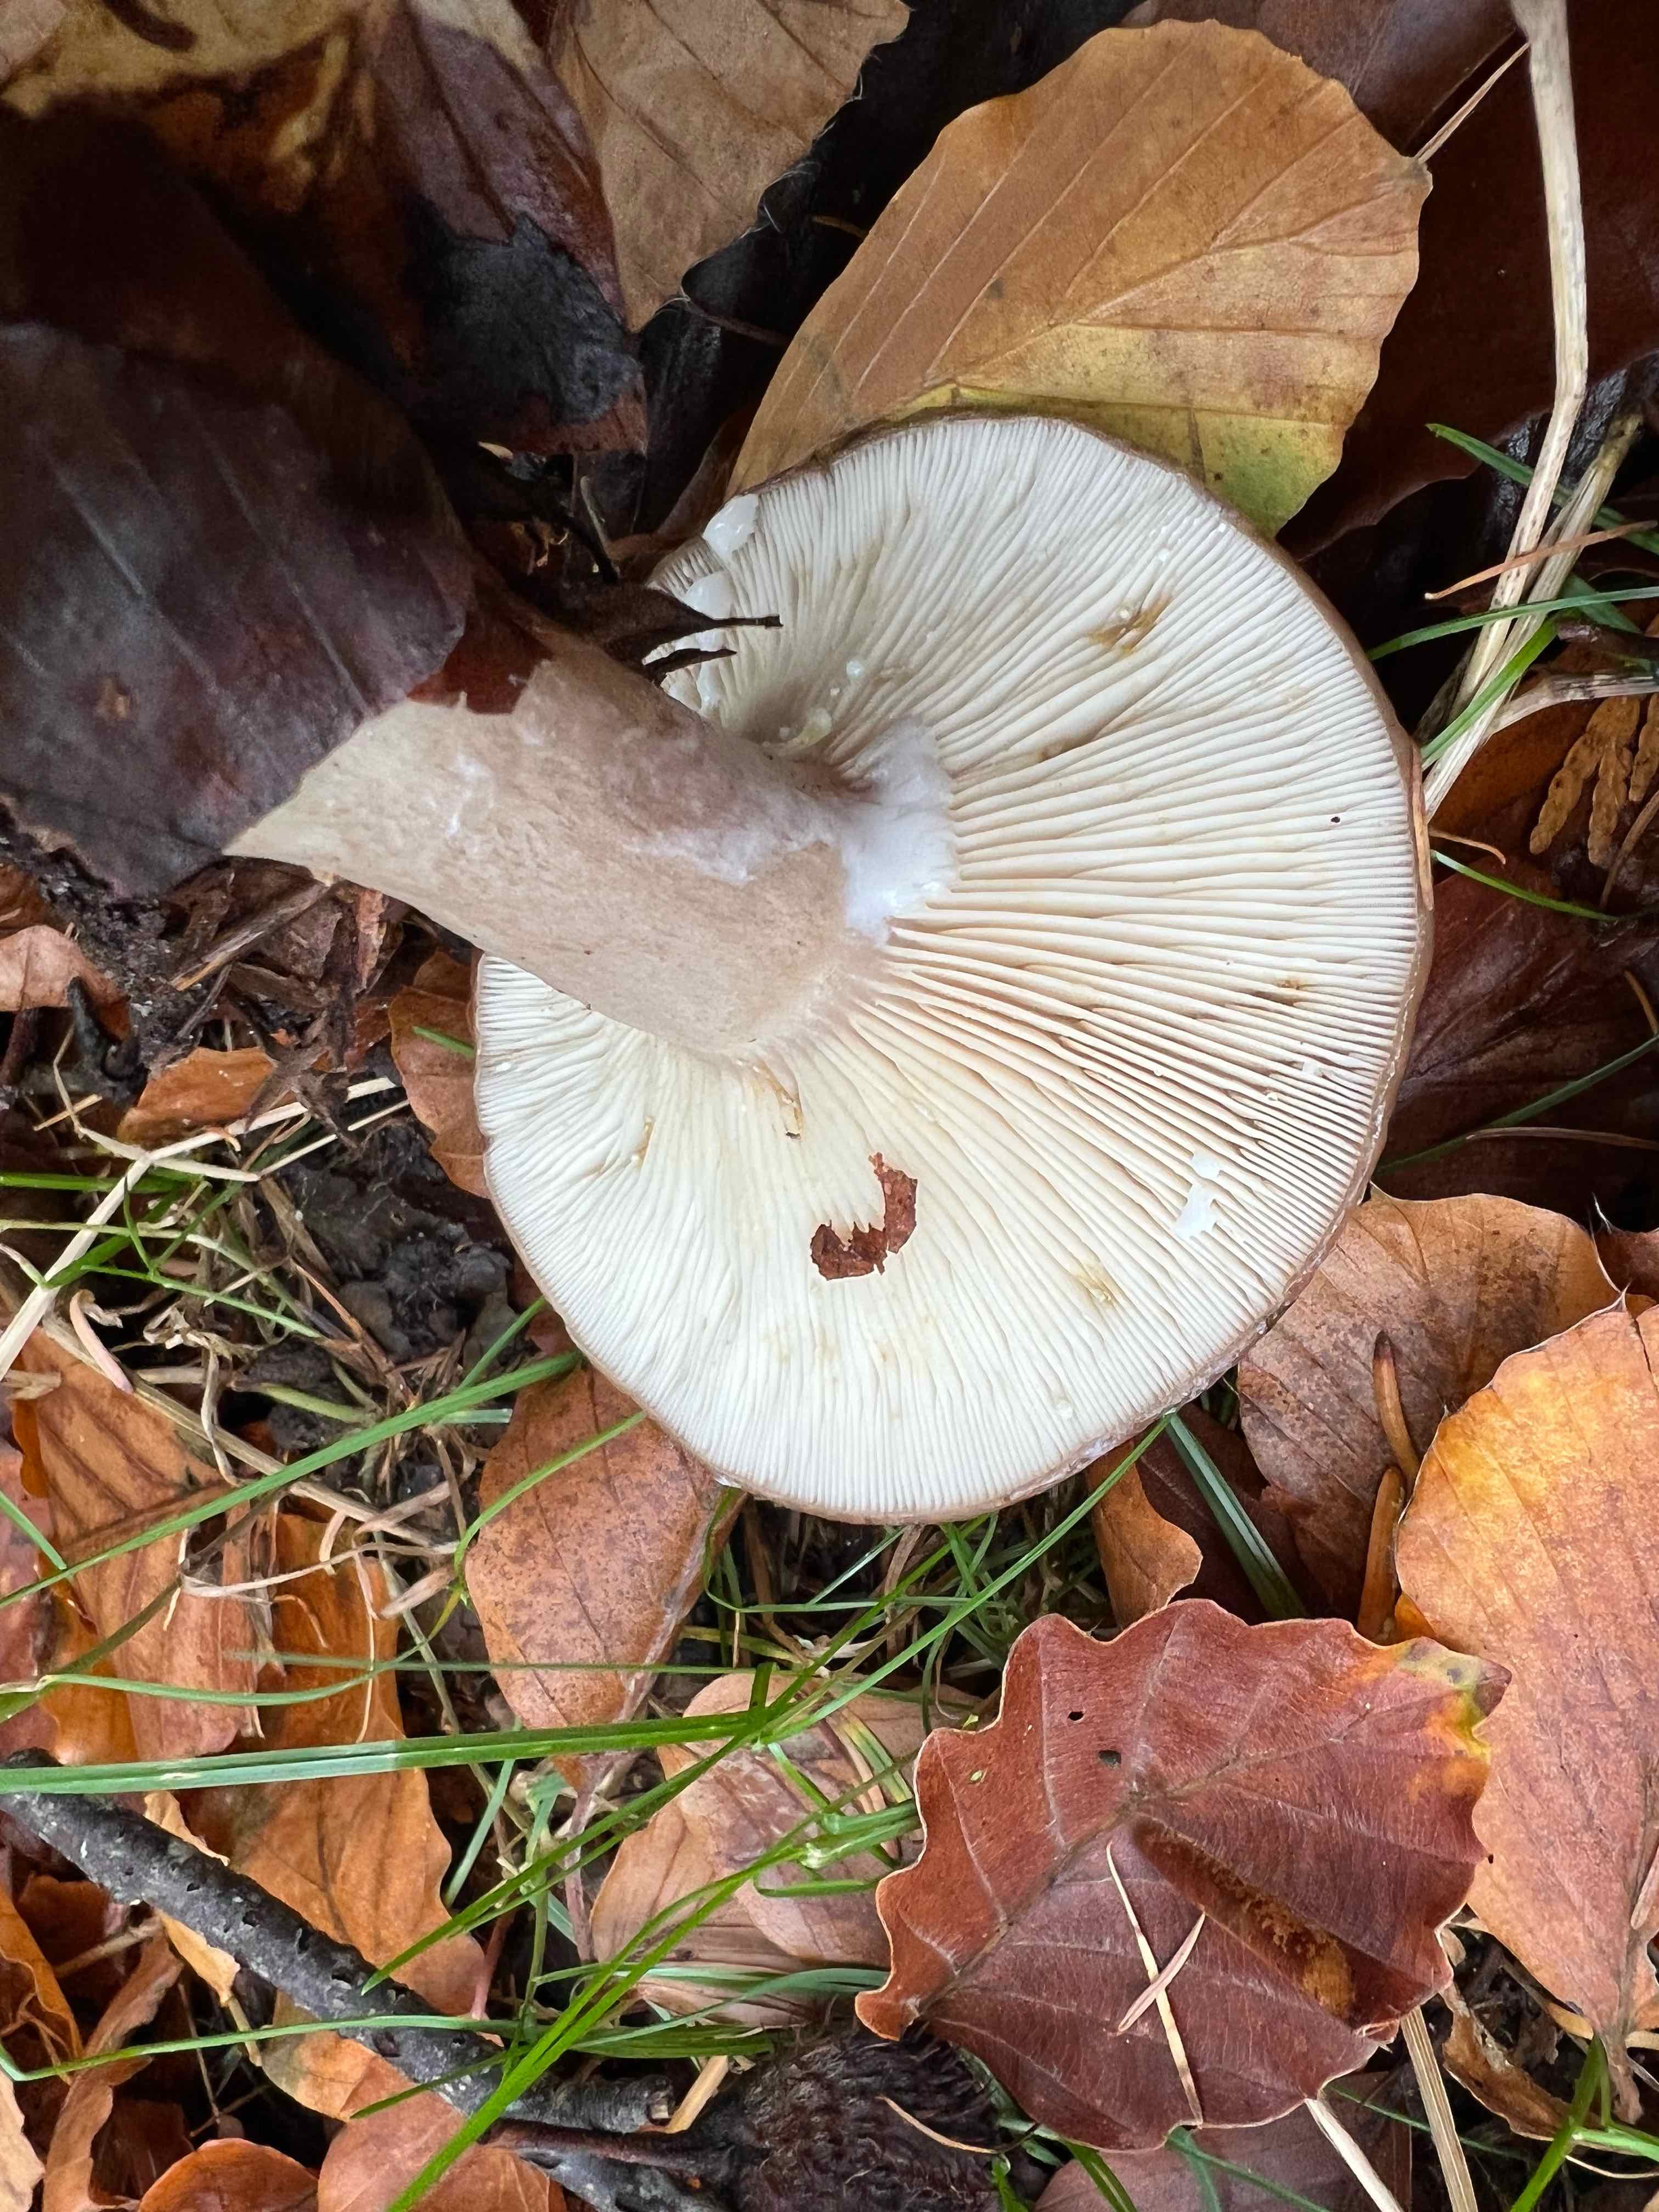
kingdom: Fungi
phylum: Basidiomycota
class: Agaricomycetes
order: Russulales
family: Russulaceae
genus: Lactarius
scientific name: Lactarius blennius
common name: dråbeplettet mælkehat
